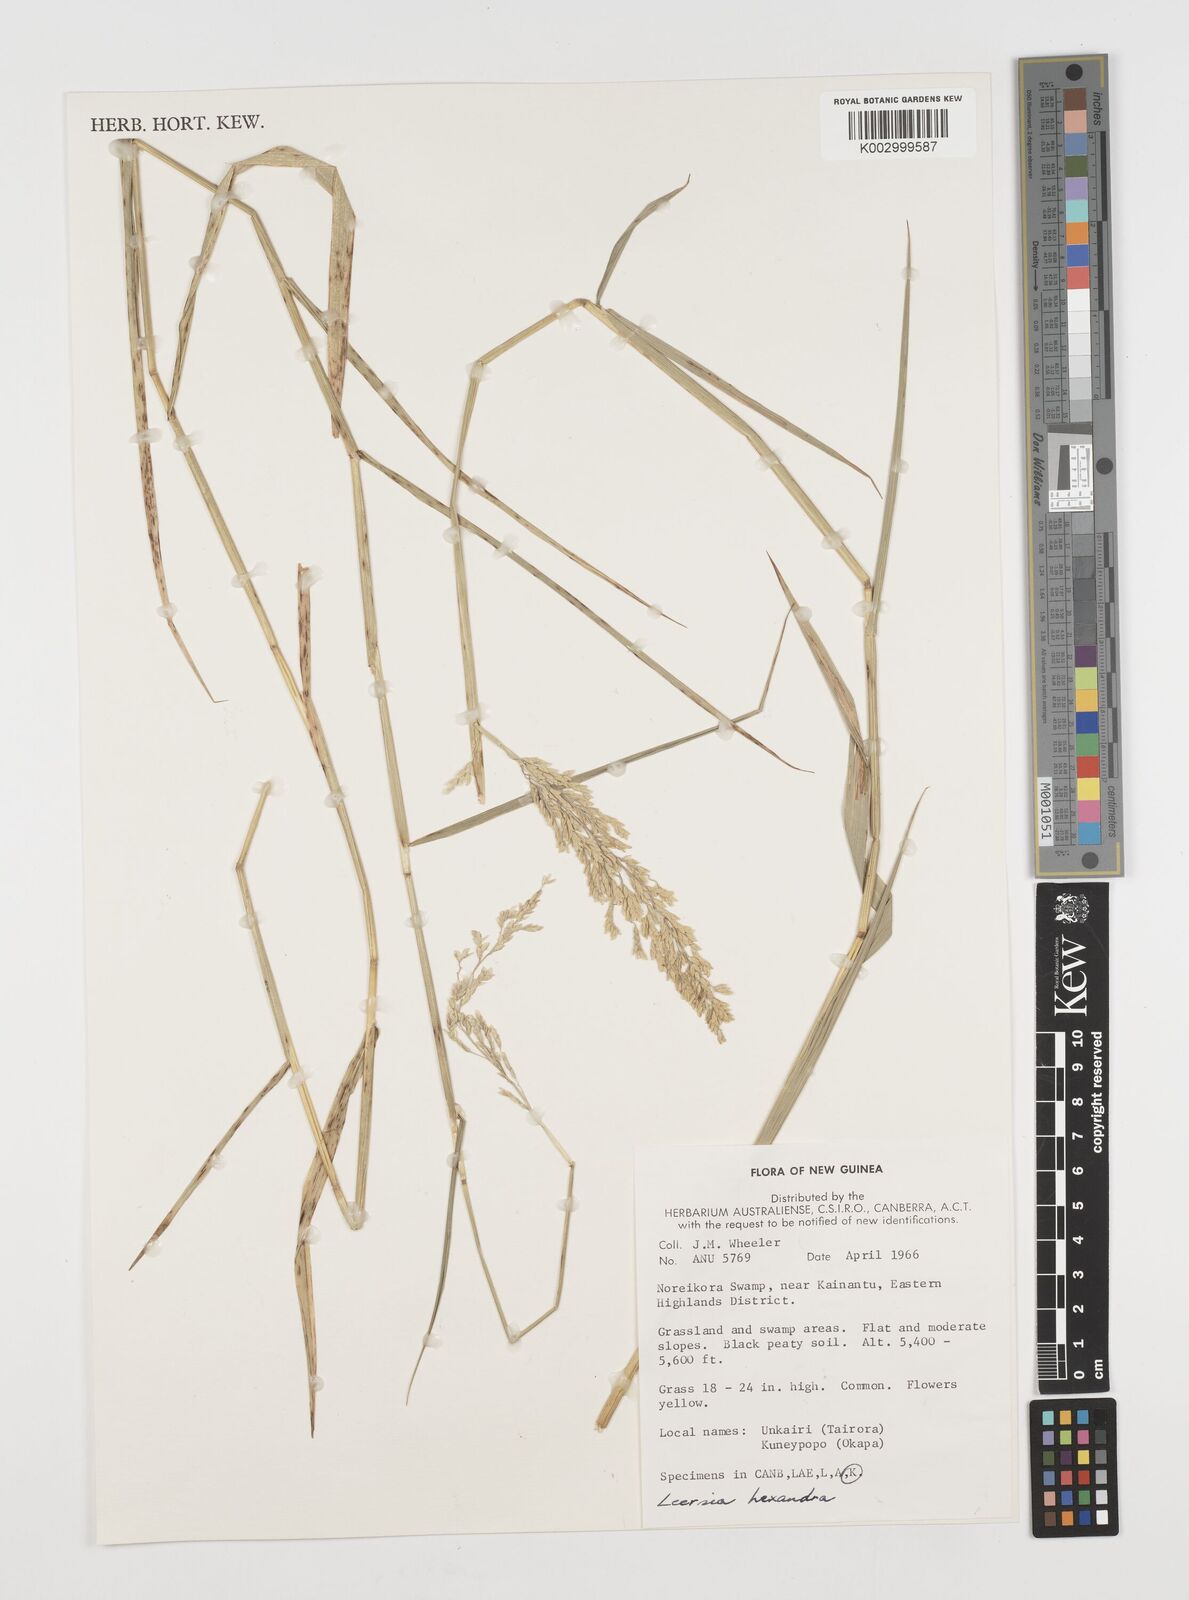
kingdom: Plantae
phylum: Tracheophyta
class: Liliopsida
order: Poales
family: Poaceae
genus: Leersia
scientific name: Leersia hexandra
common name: Southern cut grass
